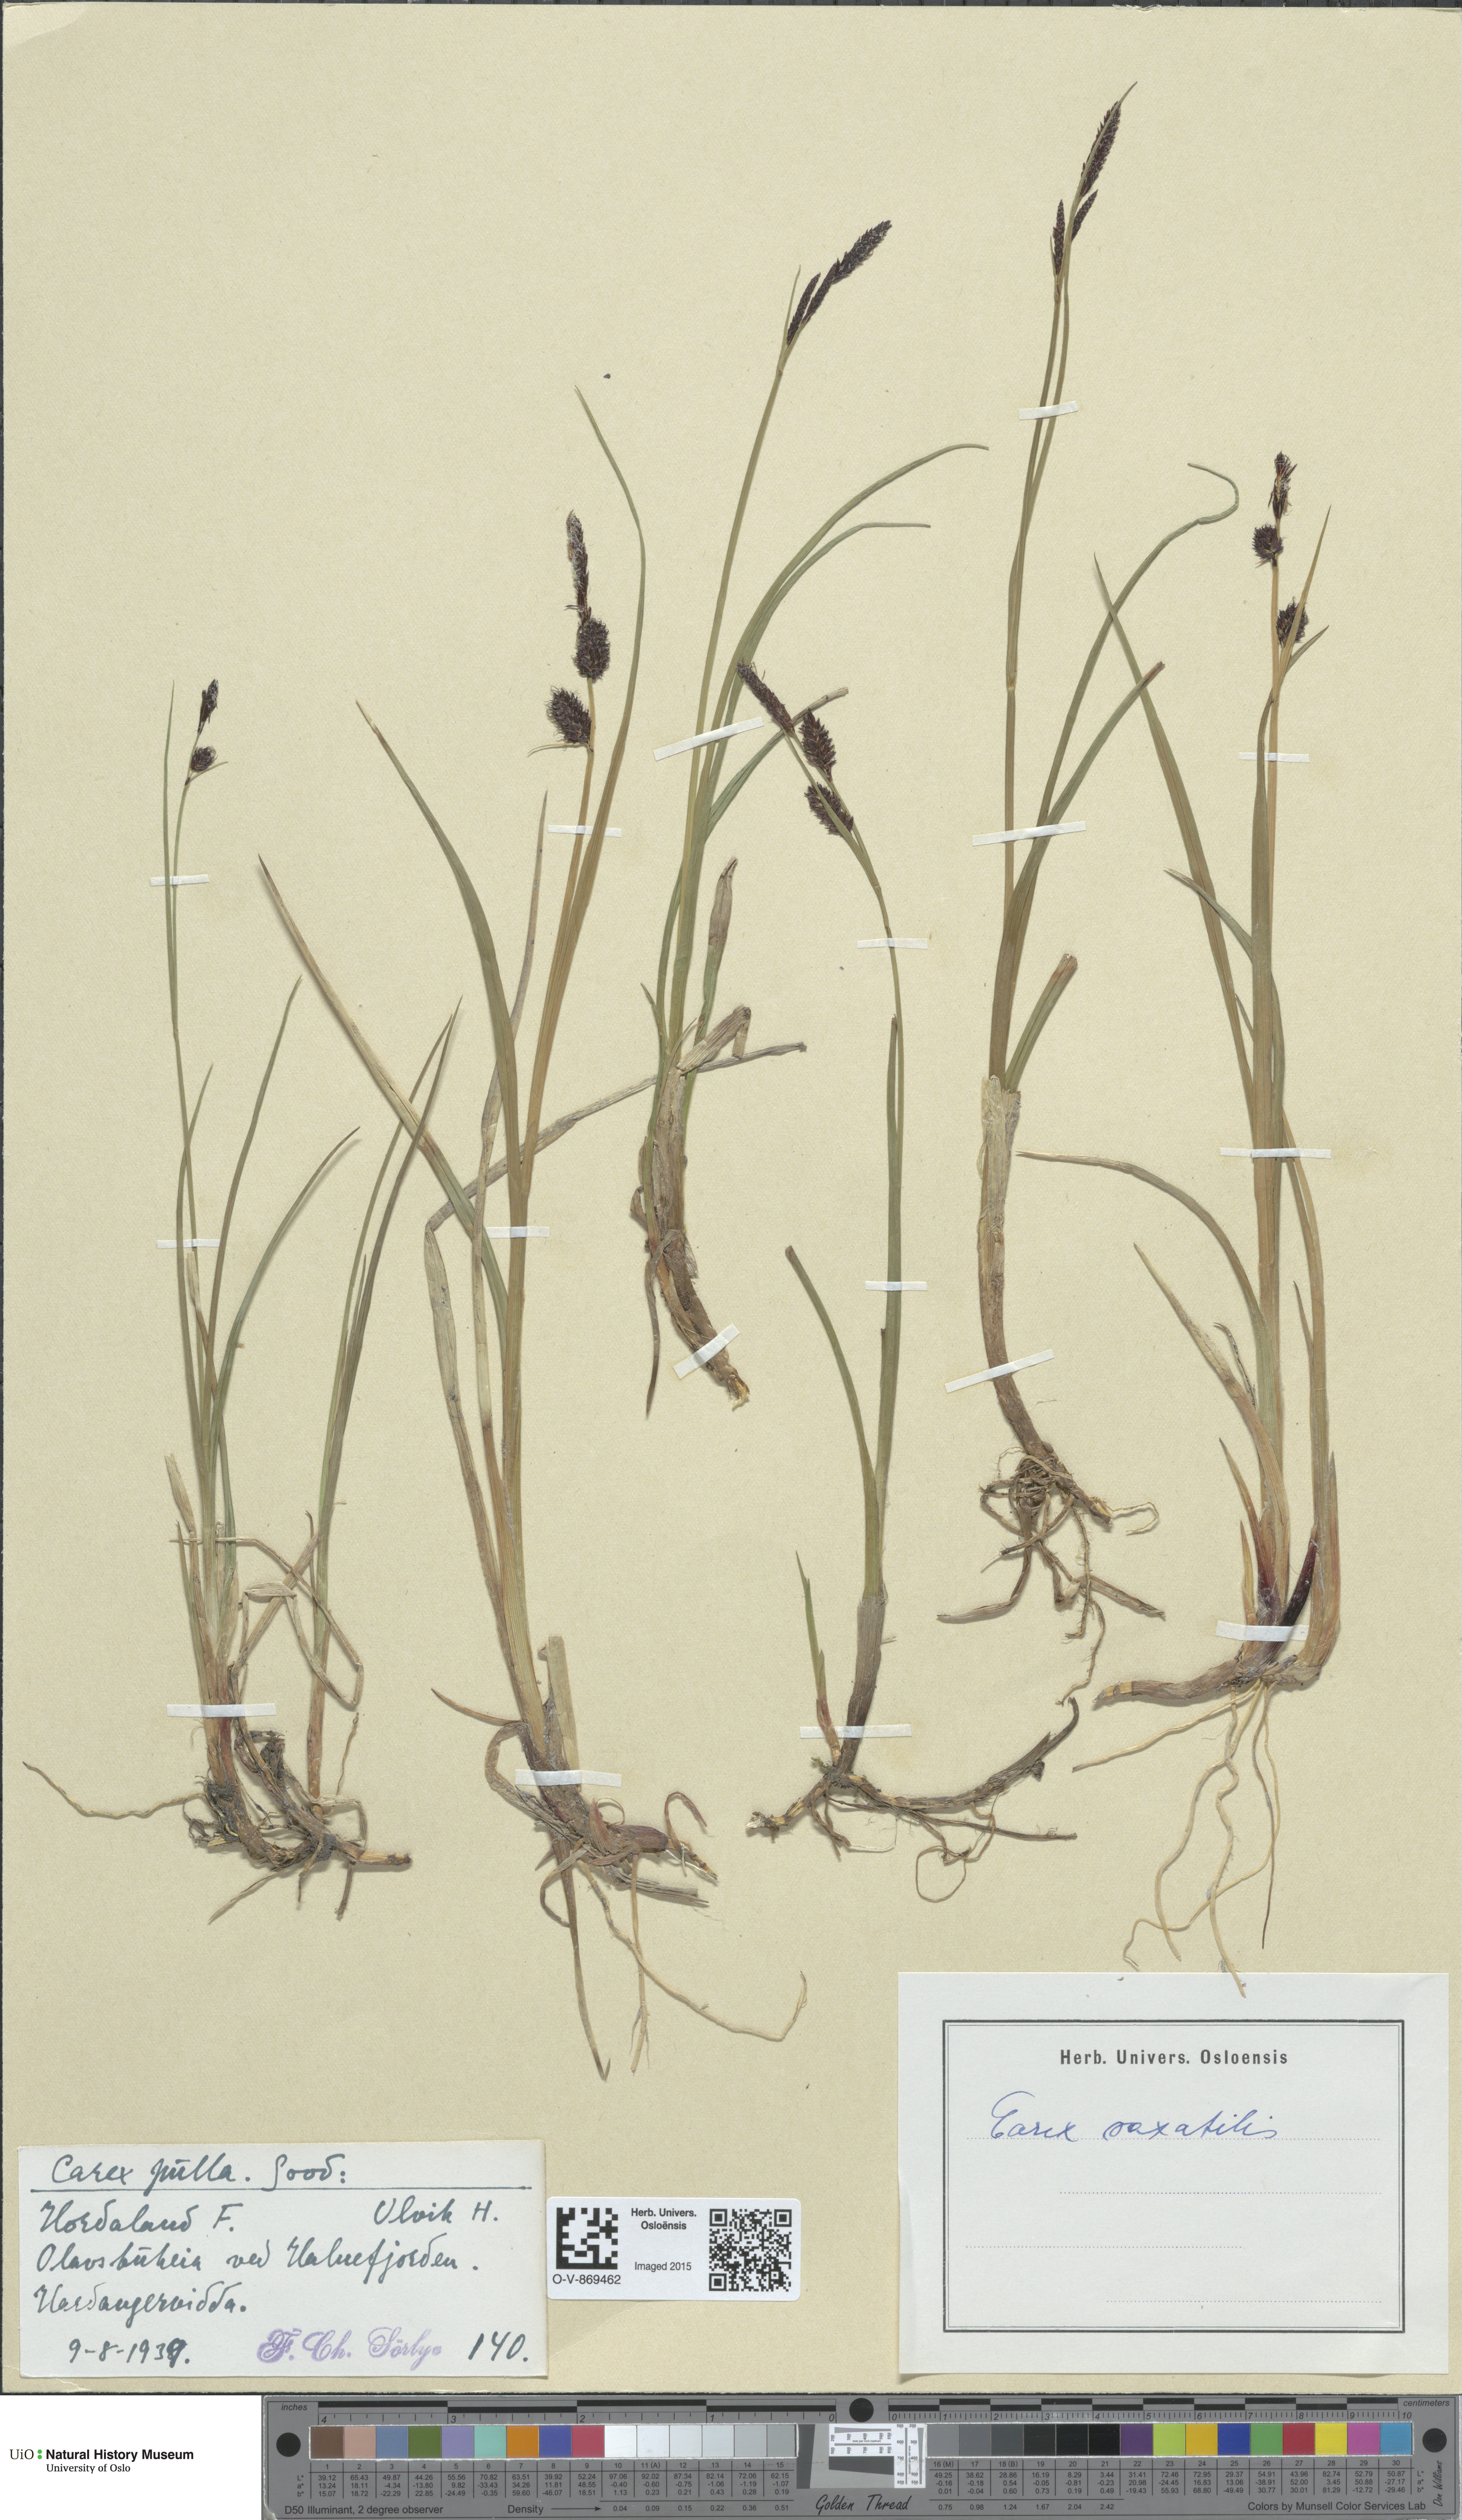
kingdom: Plantae
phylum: Tracheophyta
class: Liliopsida
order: Poales
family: Cyperaceae
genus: Carex
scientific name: Carex saxatilis
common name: Russet sedge
